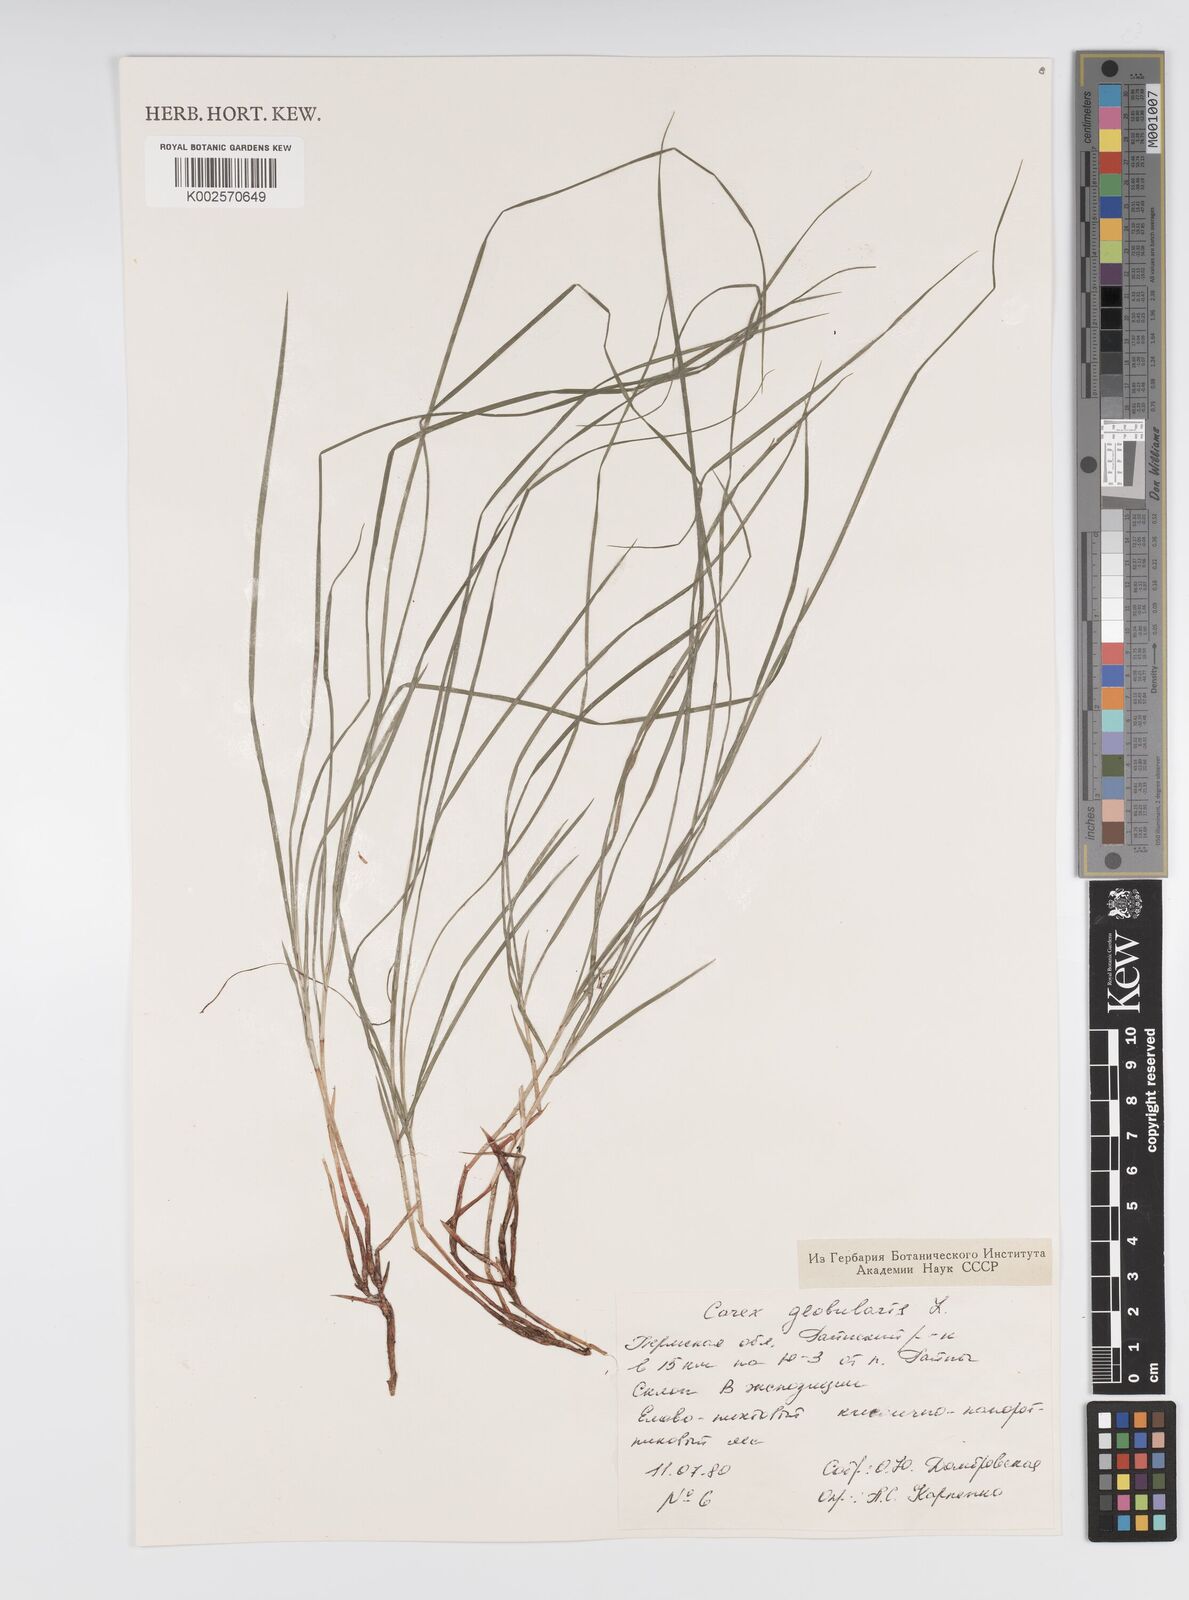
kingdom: Plantae
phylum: Tracheophyta
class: Liliopsida
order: Poales
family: Cyperaceae
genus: Carex
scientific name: Carex globularis
